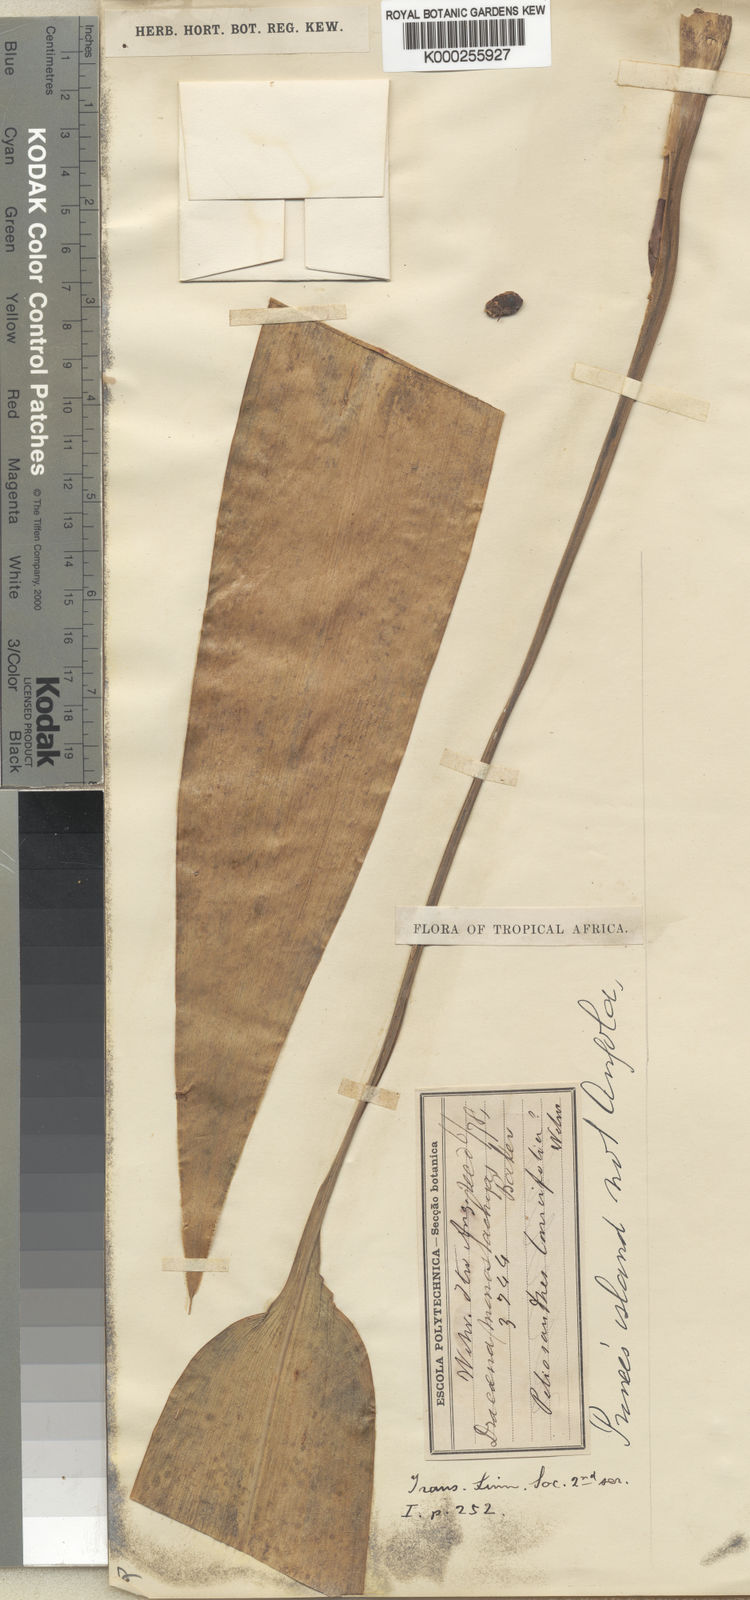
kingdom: Plantae
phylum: Tracheophyta
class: Liliopsida
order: Asparagales
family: Asparagaceae
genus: Dracaena
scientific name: Dracaena aubryana
